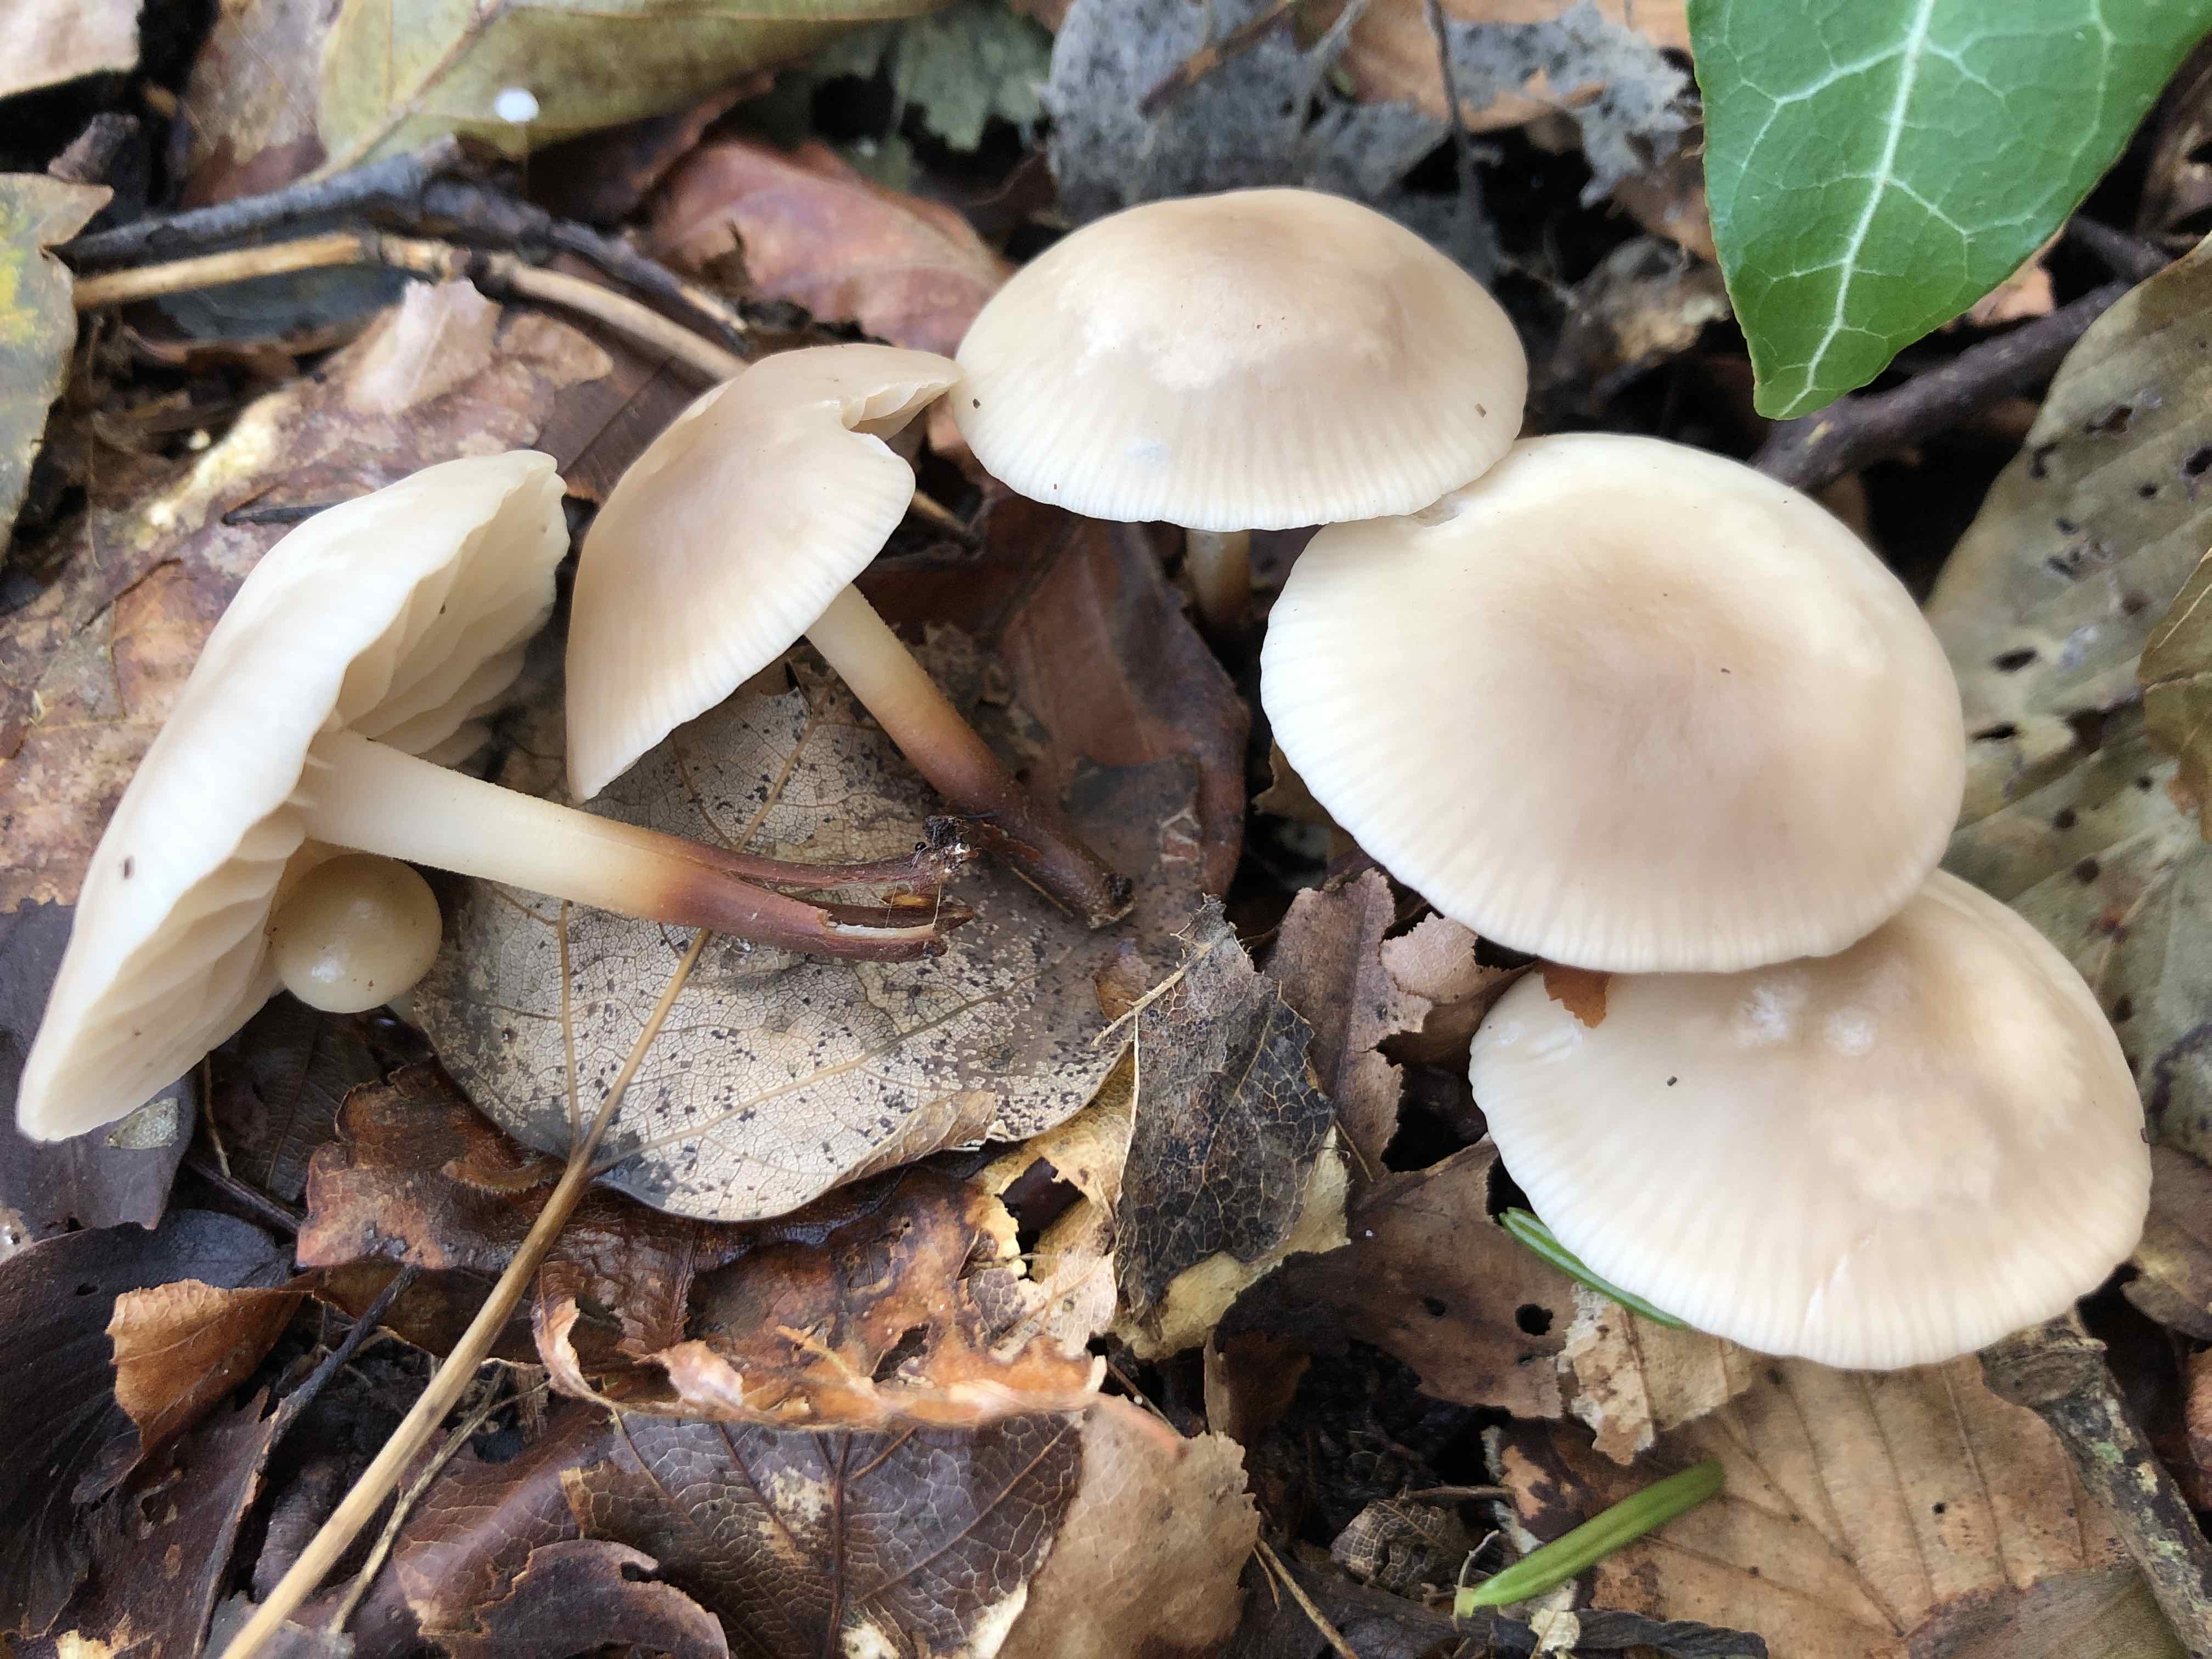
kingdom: Fungi
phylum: Basidiomycota
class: Agaricomycetes
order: Agaricales
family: Marasmiaceae
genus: Marasmius
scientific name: Marasmius wynneae
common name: hvælvet bruskhat
